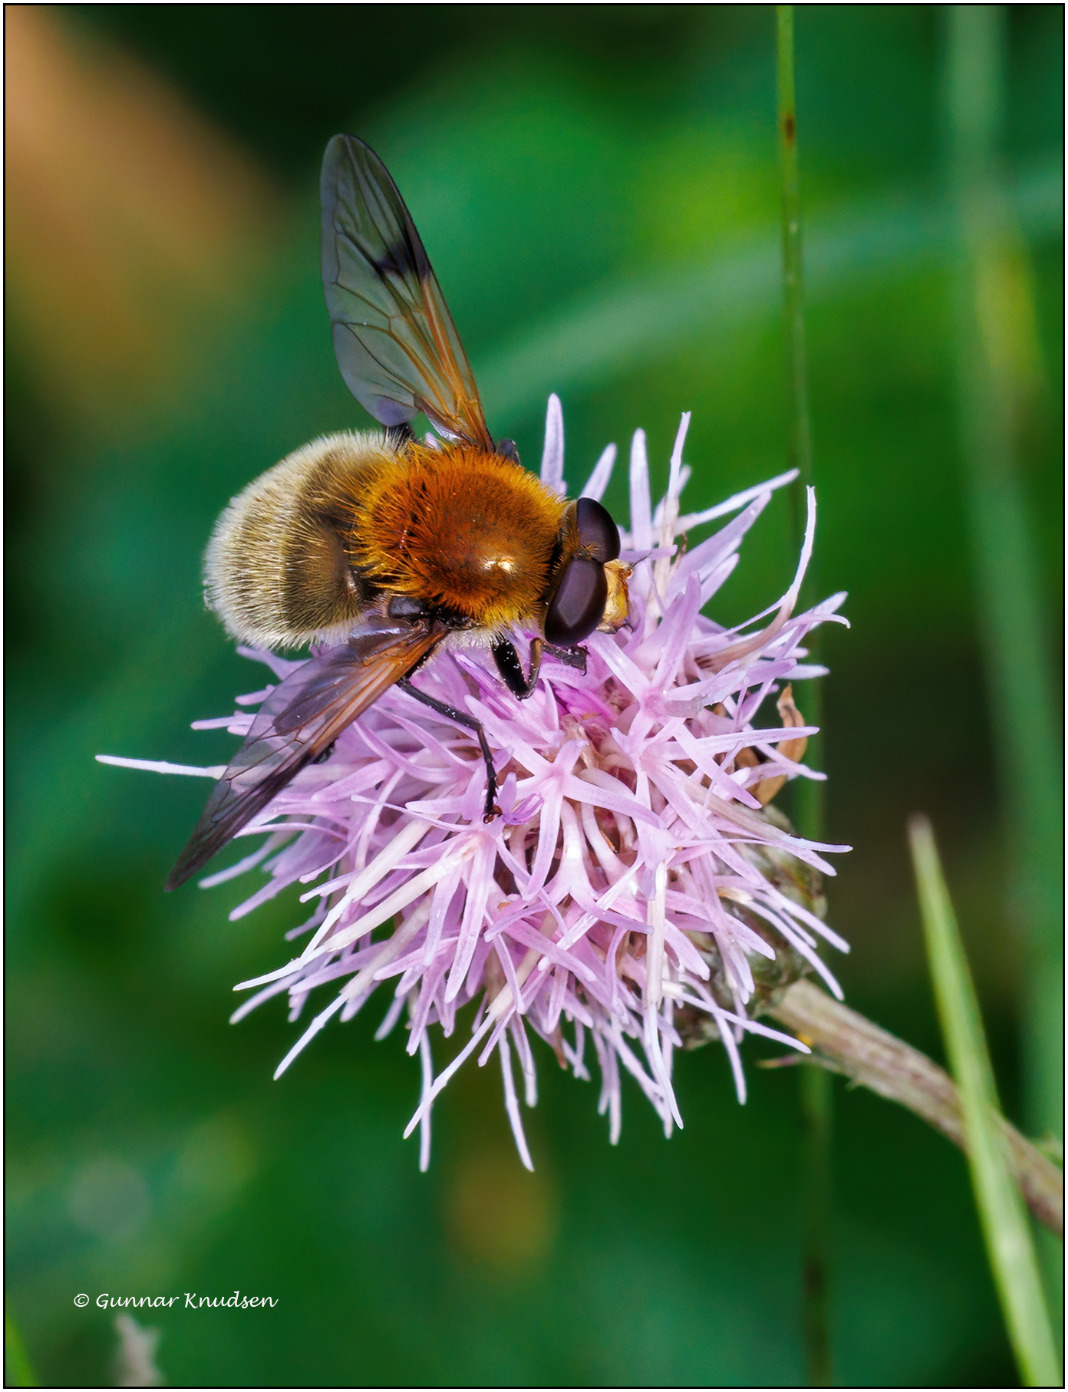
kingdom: Animalia
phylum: Arthropoda
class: Insecta
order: Diptera
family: Syrphidae
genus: Sericomyia
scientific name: Sericomyia superbiens
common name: Brun bjørnesvirreflue
